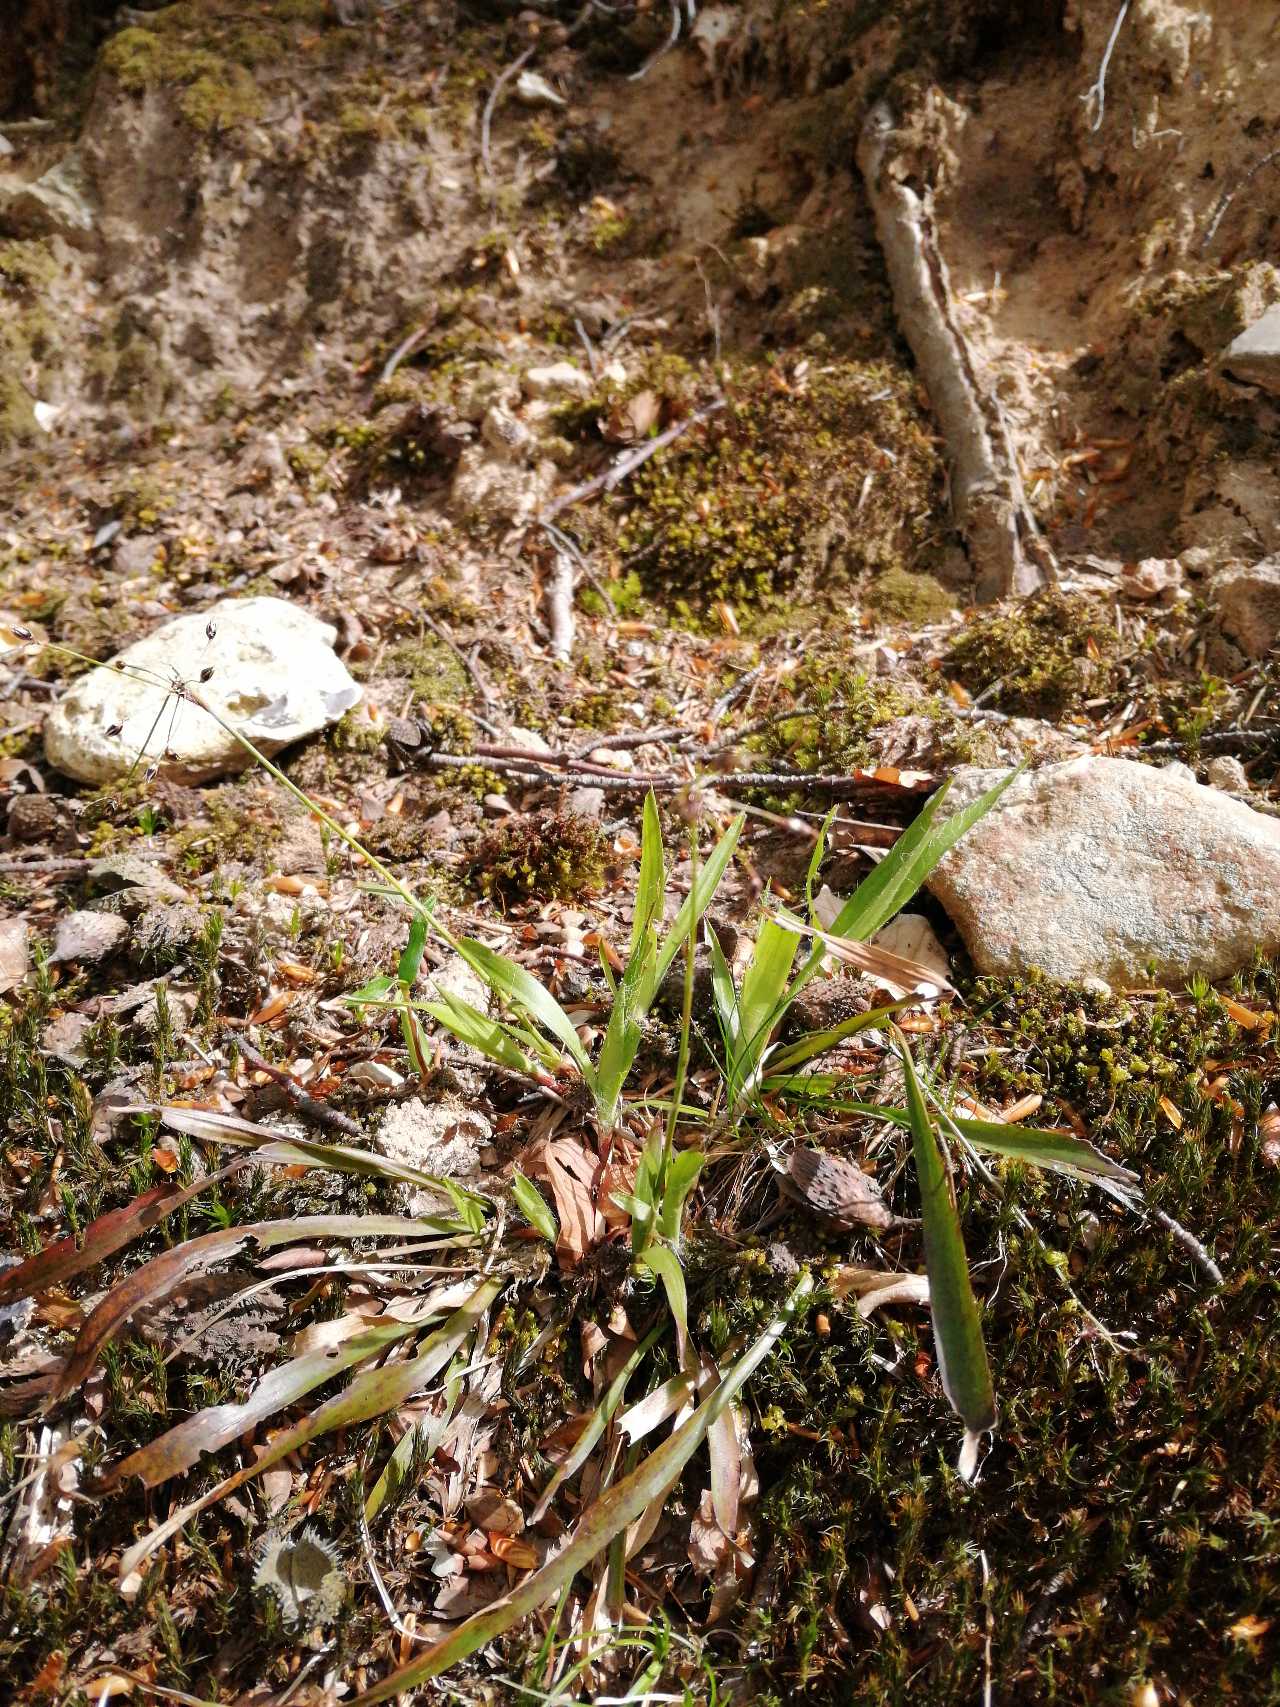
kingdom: Plantae
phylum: Tracheophyta
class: Liliopsida
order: Poales
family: Juncaceae
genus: Luzula
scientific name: Luzula pilosa
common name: Håret frytle
